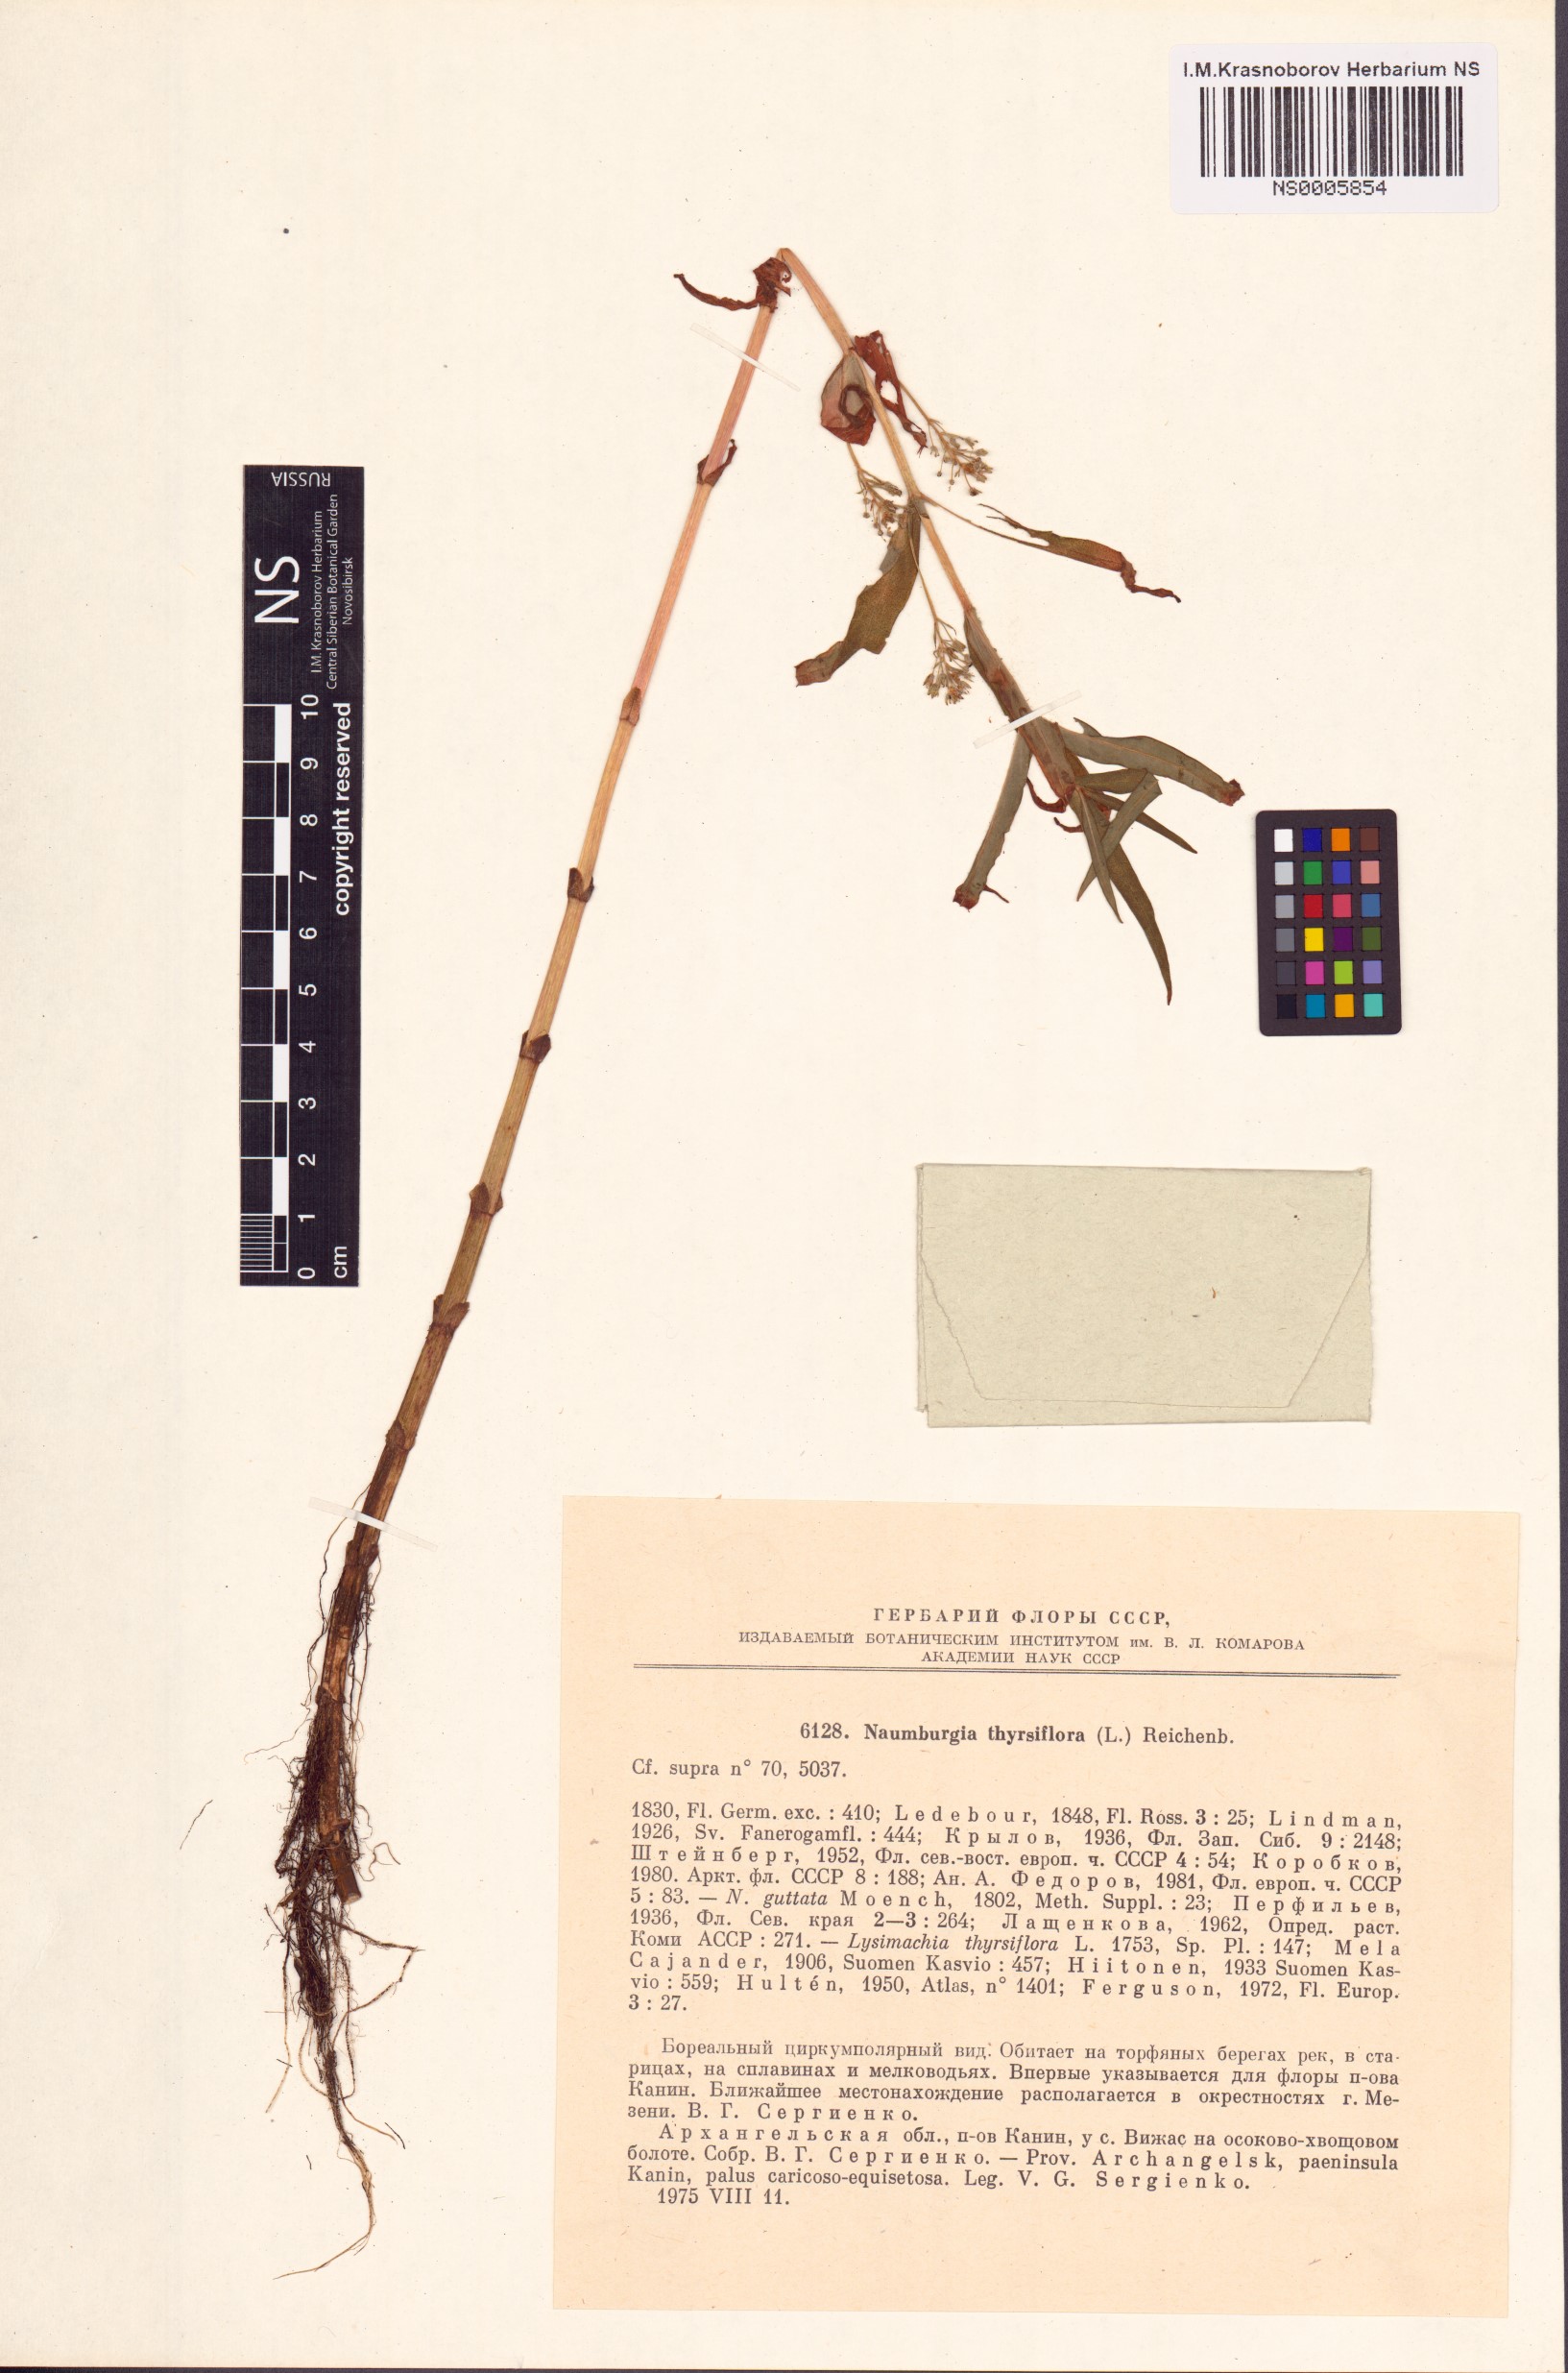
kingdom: Plantae
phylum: Tracheophyta
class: Magnoliopsida
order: Ericales
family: Primulaceae
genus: Lysimachia
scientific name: Lysimachia thyrsiflora
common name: Tufted loosestrife
